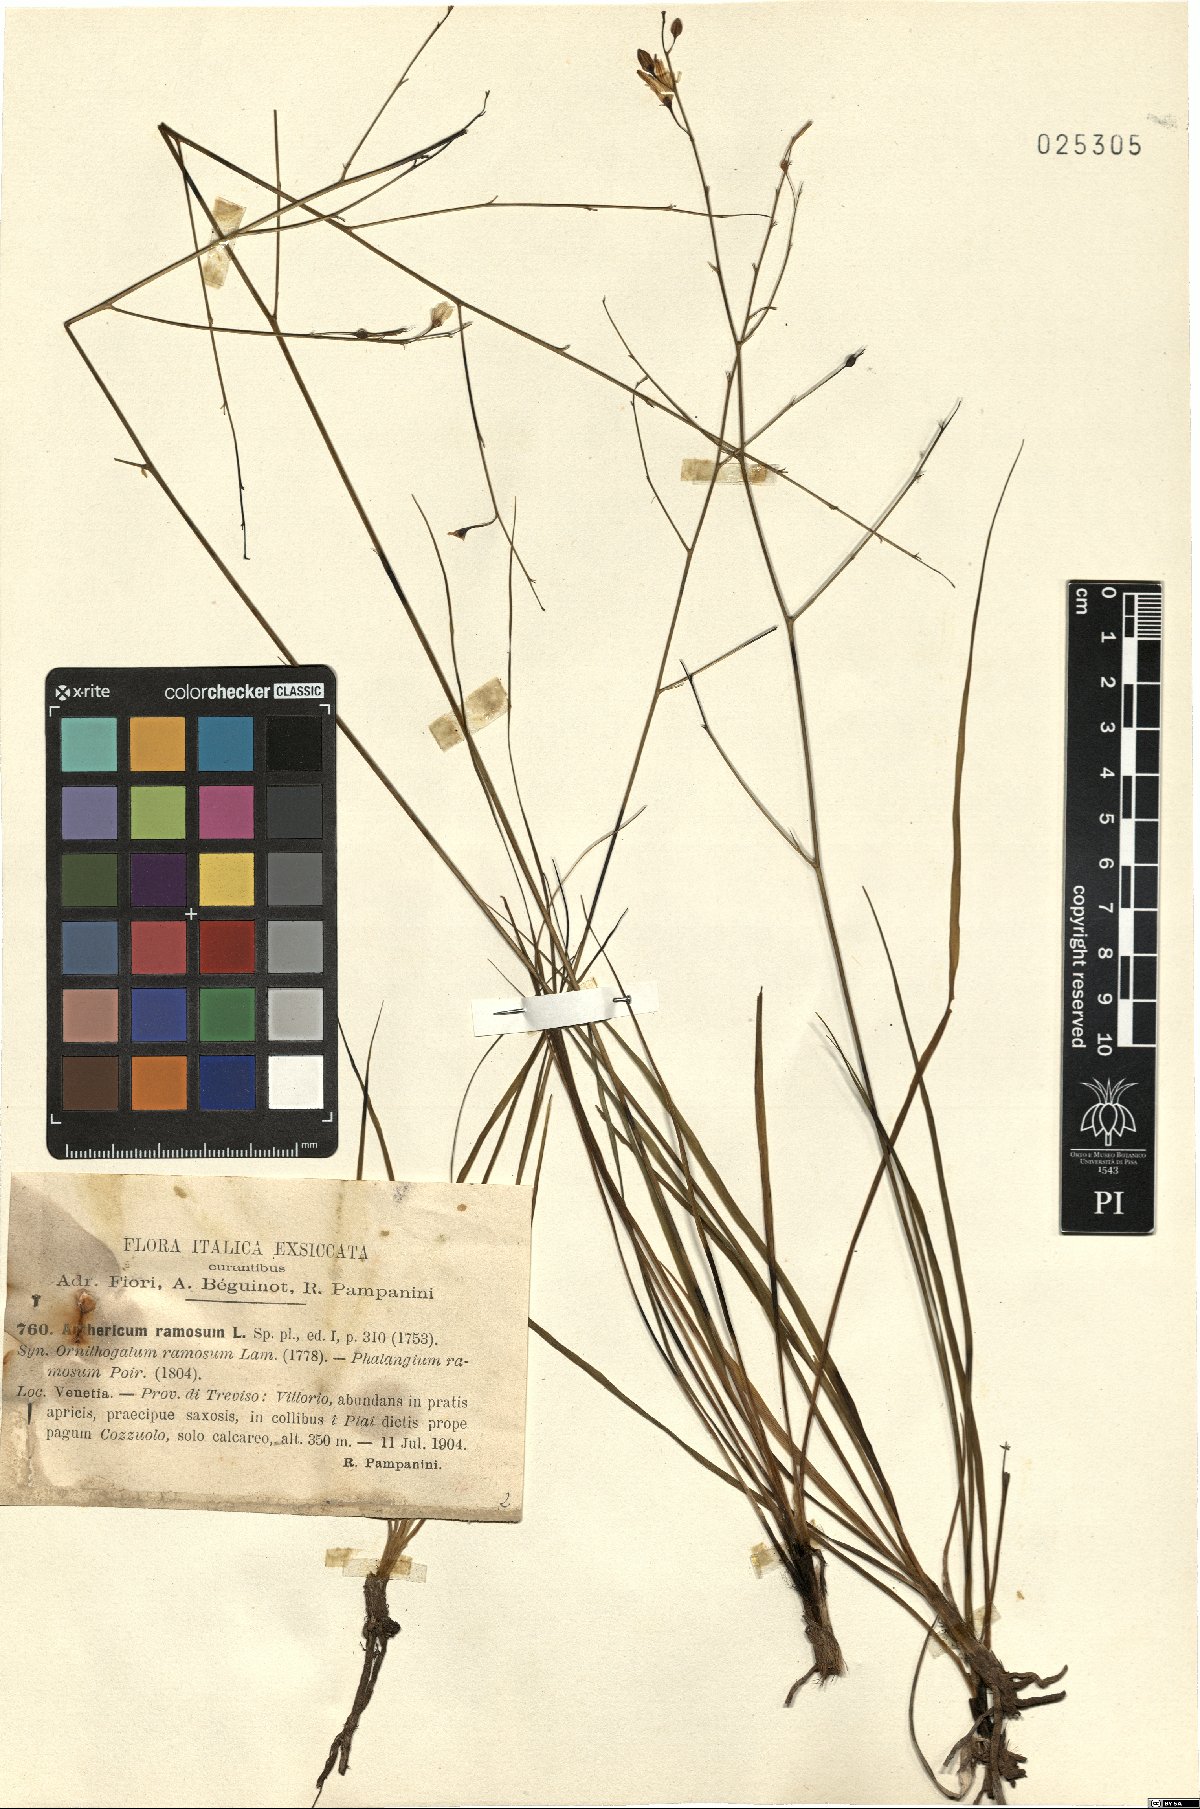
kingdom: Plantae
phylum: Tracheophyta
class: Liliopsida
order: Asparagales
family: Asparagaceae
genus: Anthericum
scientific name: Anthericum ramosum
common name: Branched st. bernard's-lily
